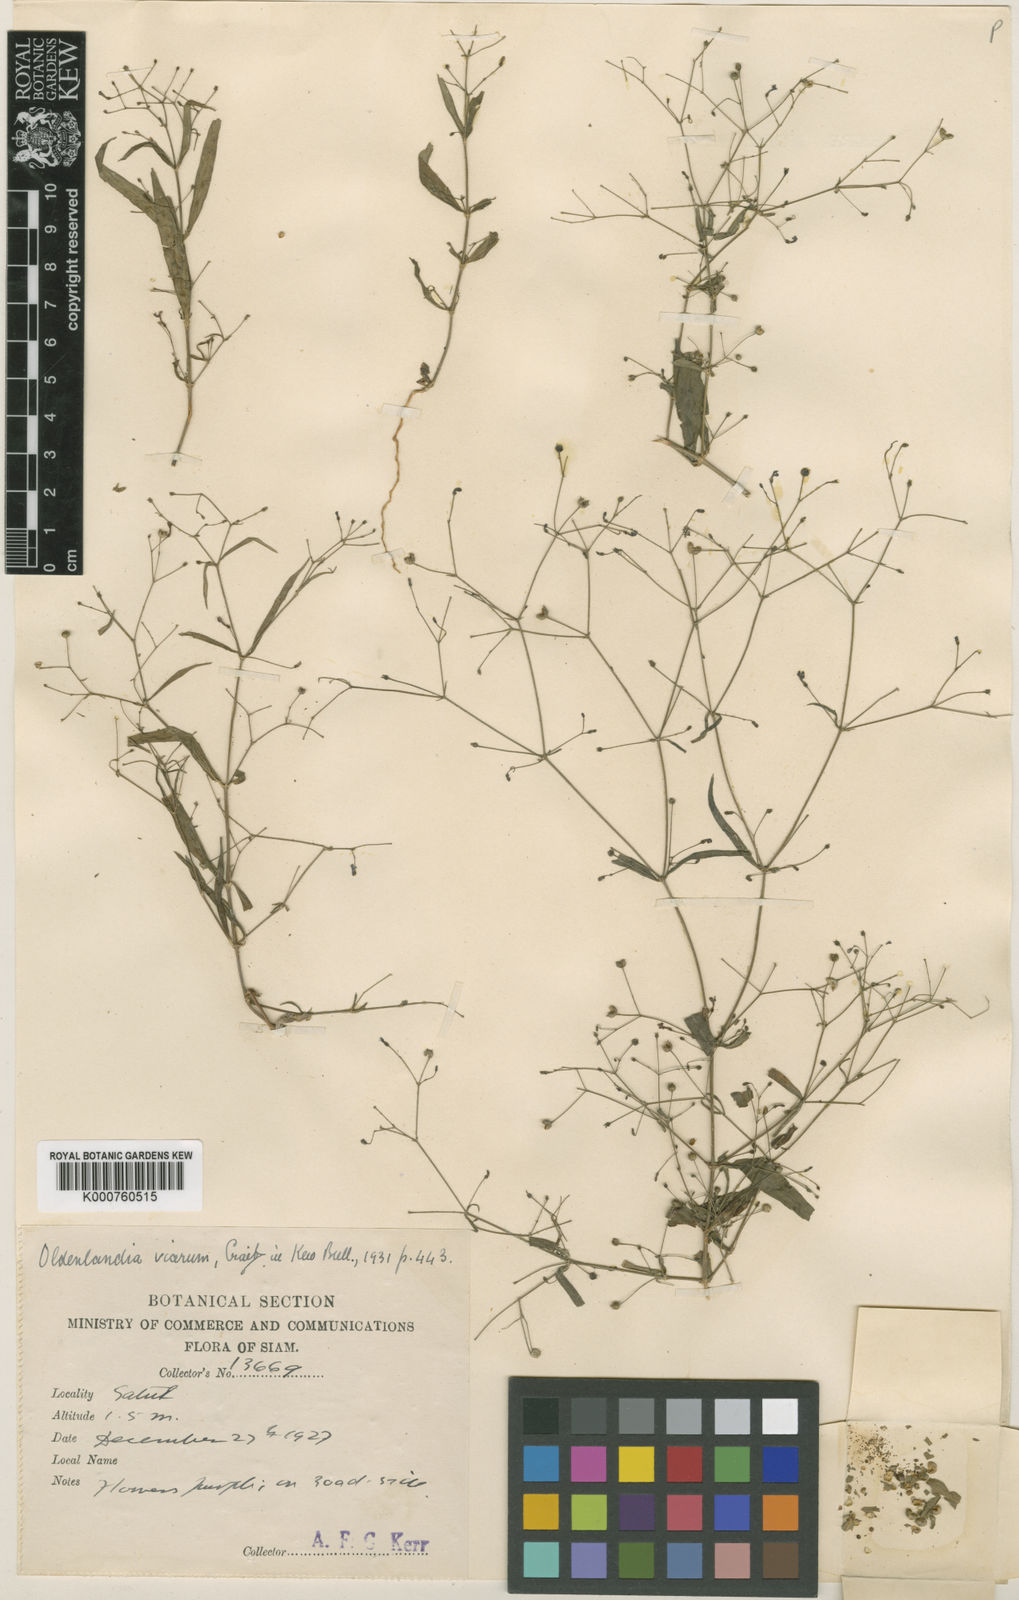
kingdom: Plantae
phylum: Tracheophyta
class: Magnoliopsida
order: Gentianales
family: Rubiaceae
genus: Oldenlandia
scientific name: Oldenlandia affinis
